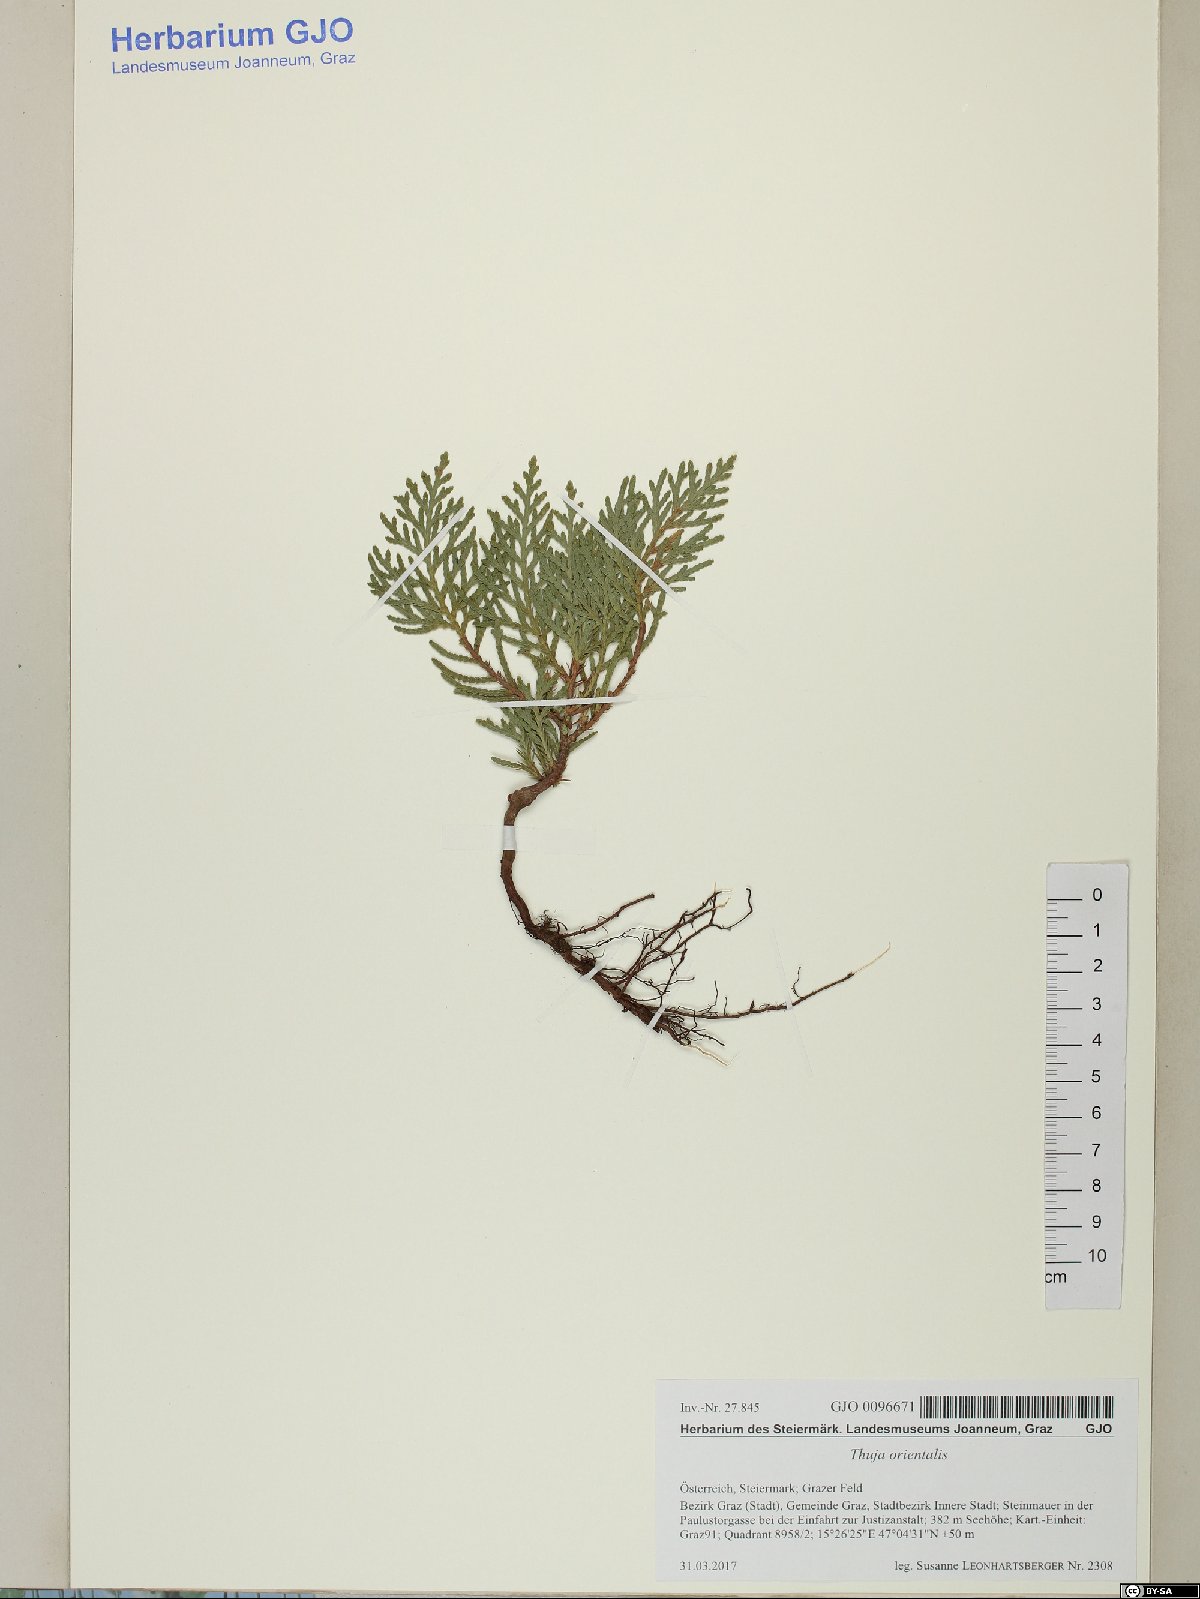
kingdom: Plantae
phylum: Tracheophyta
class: Pinopsida
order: Pinales
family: Cupressaceae
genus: Platycladus
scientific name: Platycladus orientalis
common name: Chinese thuja
